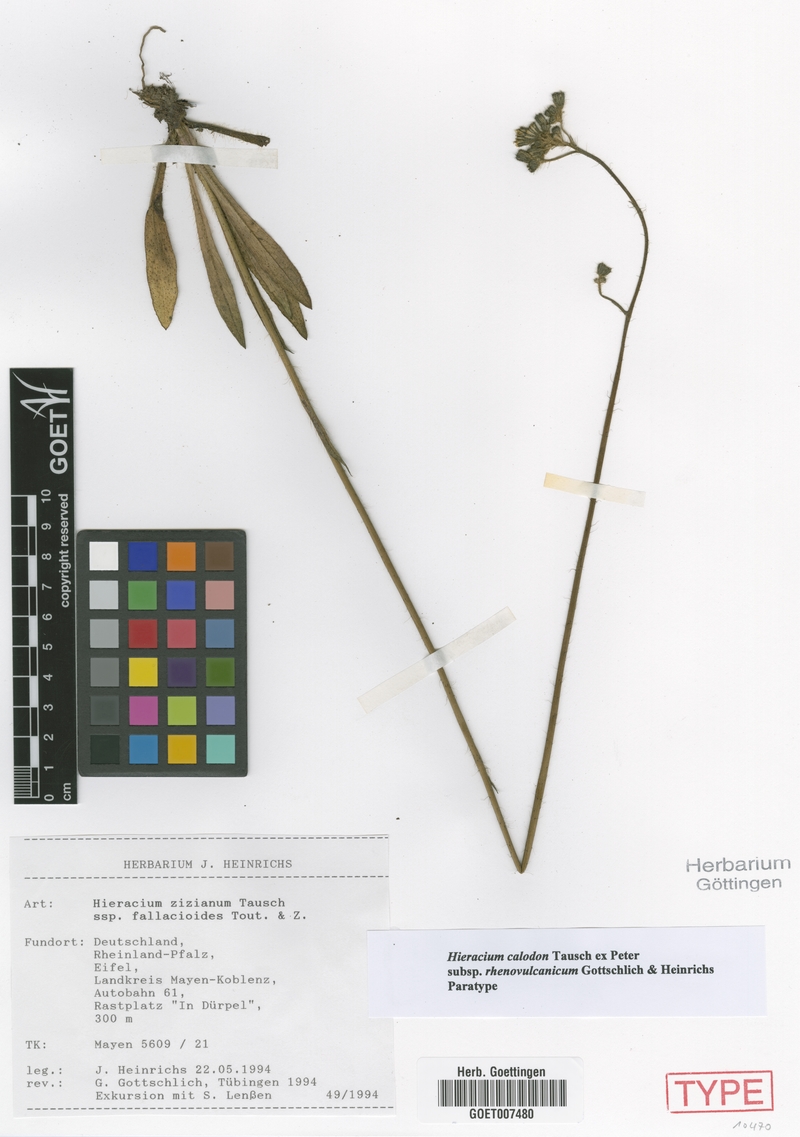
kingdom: Plantae
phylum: Tracheophyta
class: Magnoliopsida
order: Asterales
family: Asteraceae
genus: Pilosella
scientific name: Pilosella calodon
